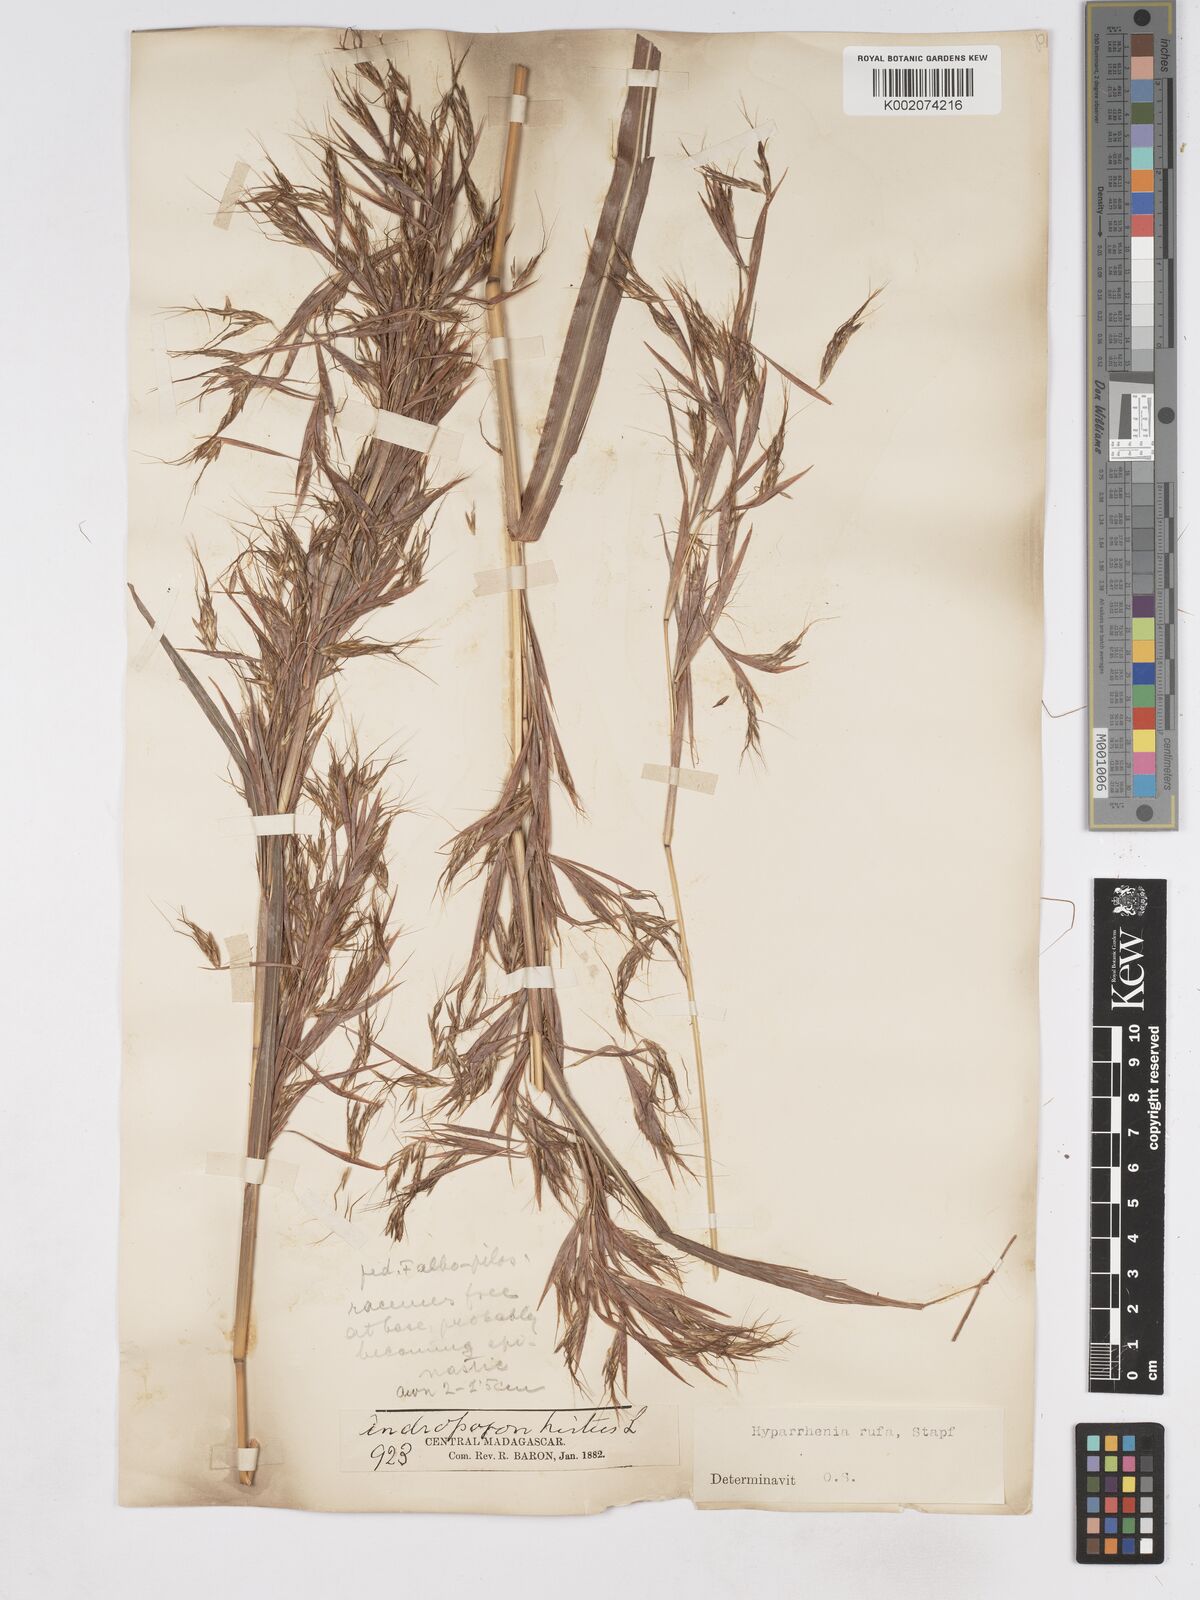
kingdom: Plantae
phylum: Tracheophyta
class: Liliopsida
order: Poales
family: Poaceae
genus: Hyparrhenia
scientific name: Hyparrhenia rufa
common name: Jaraguagrass
